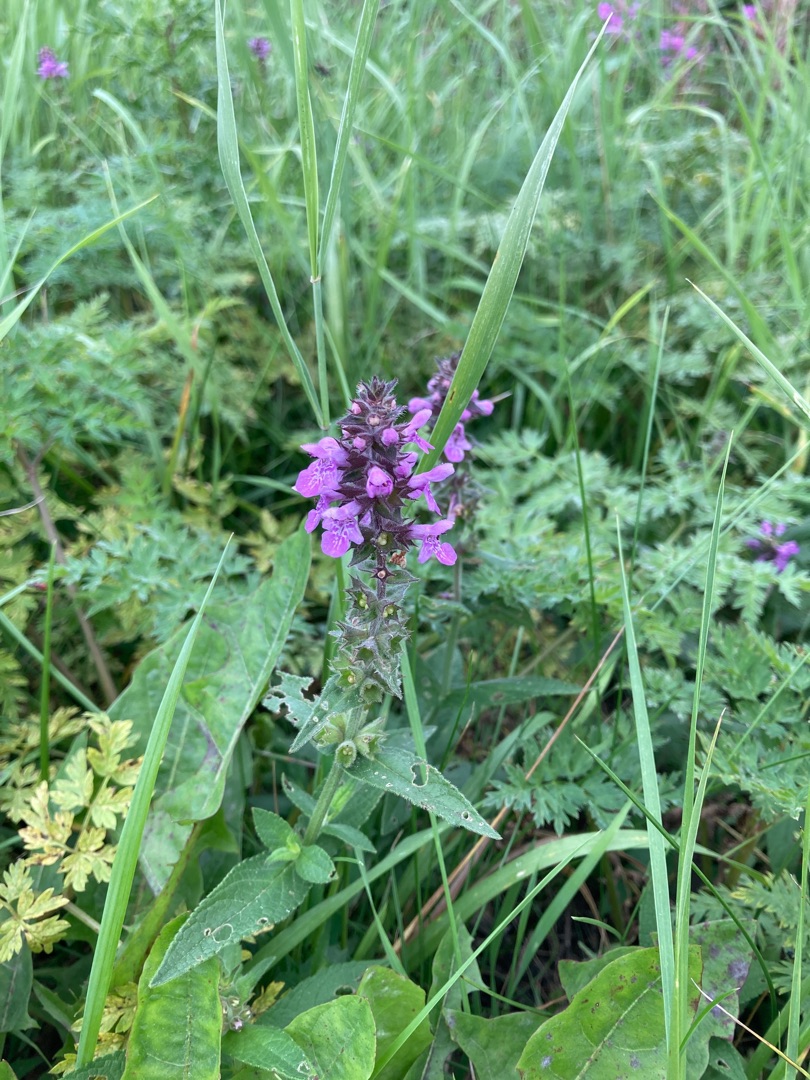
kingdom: Plantae
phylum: Tracheophyta
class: Magnoliopsida
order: Lamiales
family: Lamiaceae
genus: Stachys
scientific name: Stachys palustris
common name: Kær-galtetand
